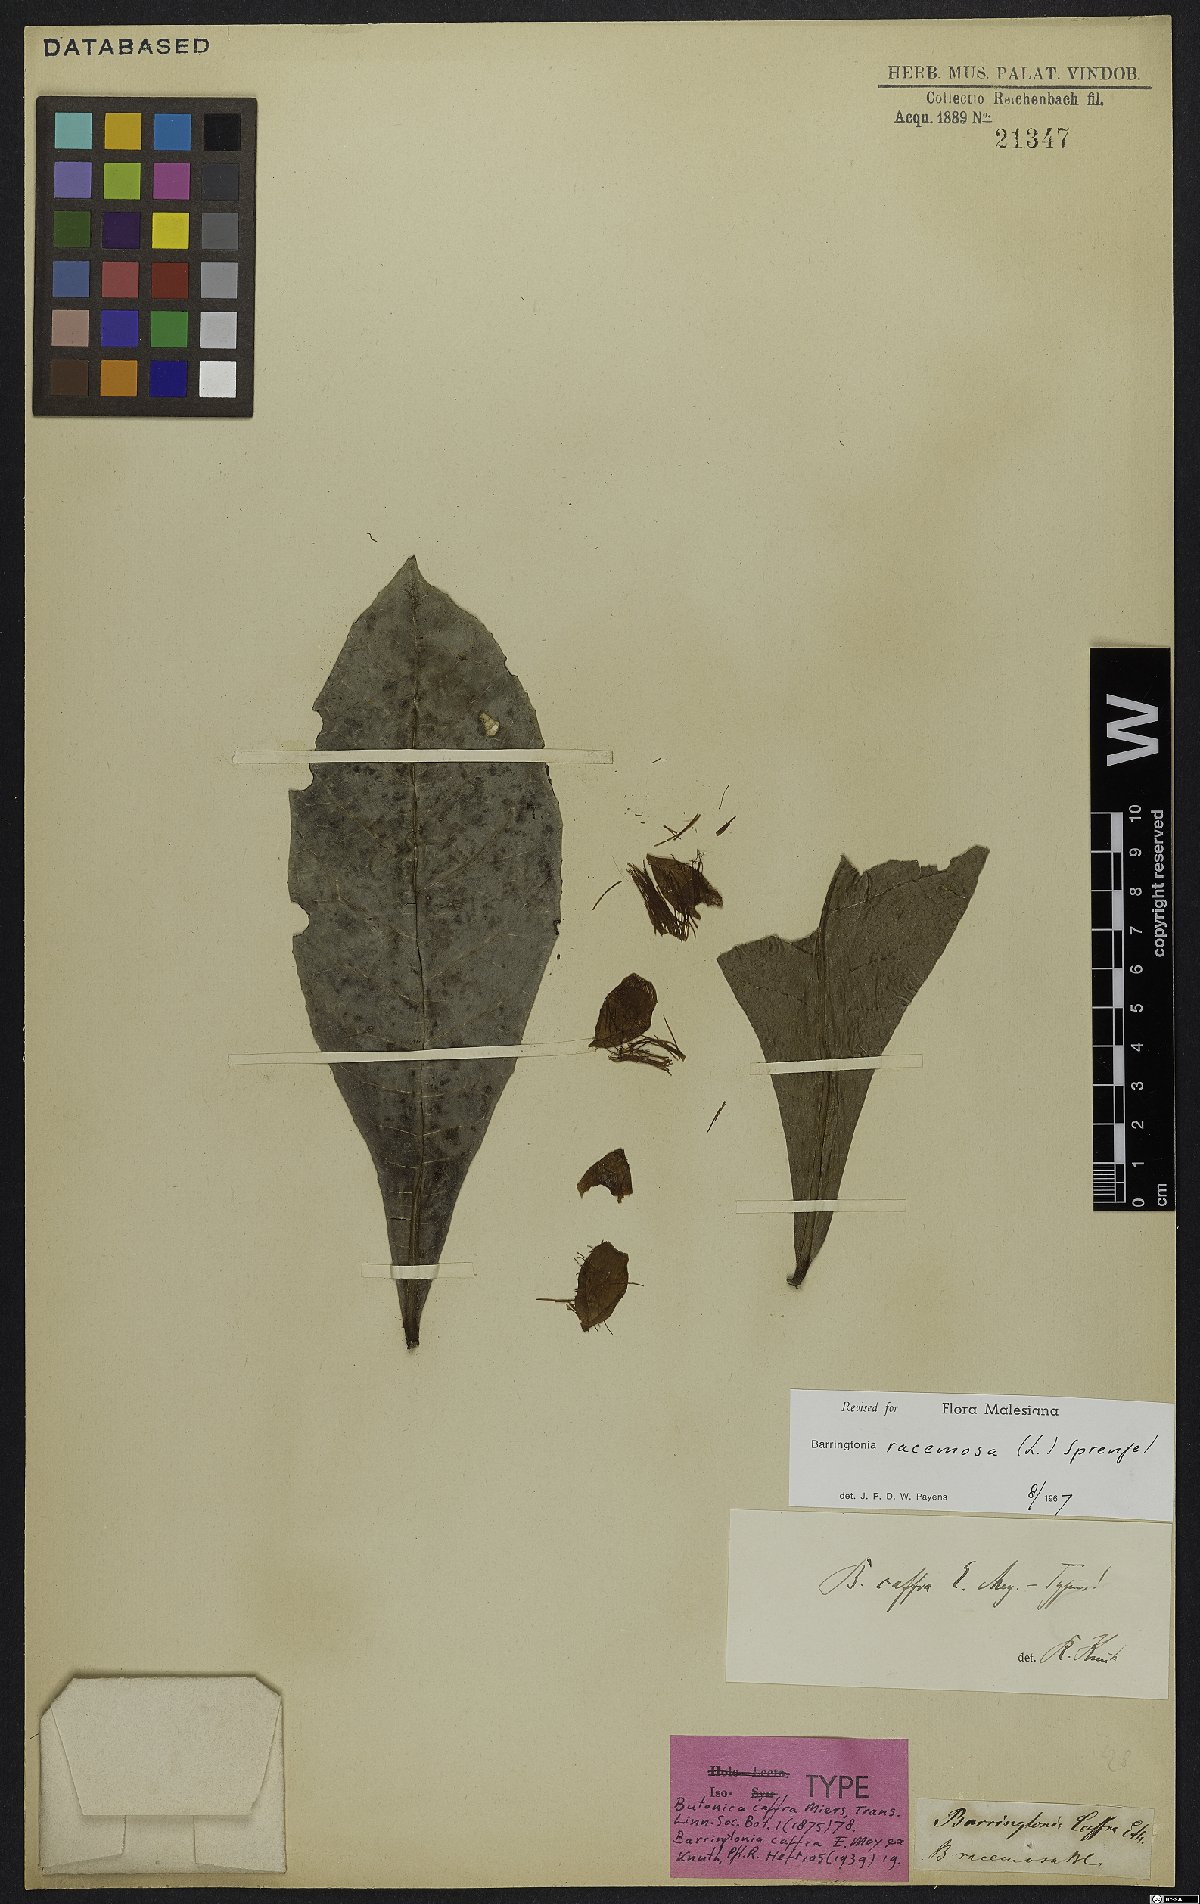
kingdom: Plantae
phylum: Tracheophyta
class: Magnoliopsida
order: Ericales
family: Lecythidaceae
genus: Barringtonia
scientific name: Barringtonia racemosa
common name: Brackwater mangrove
